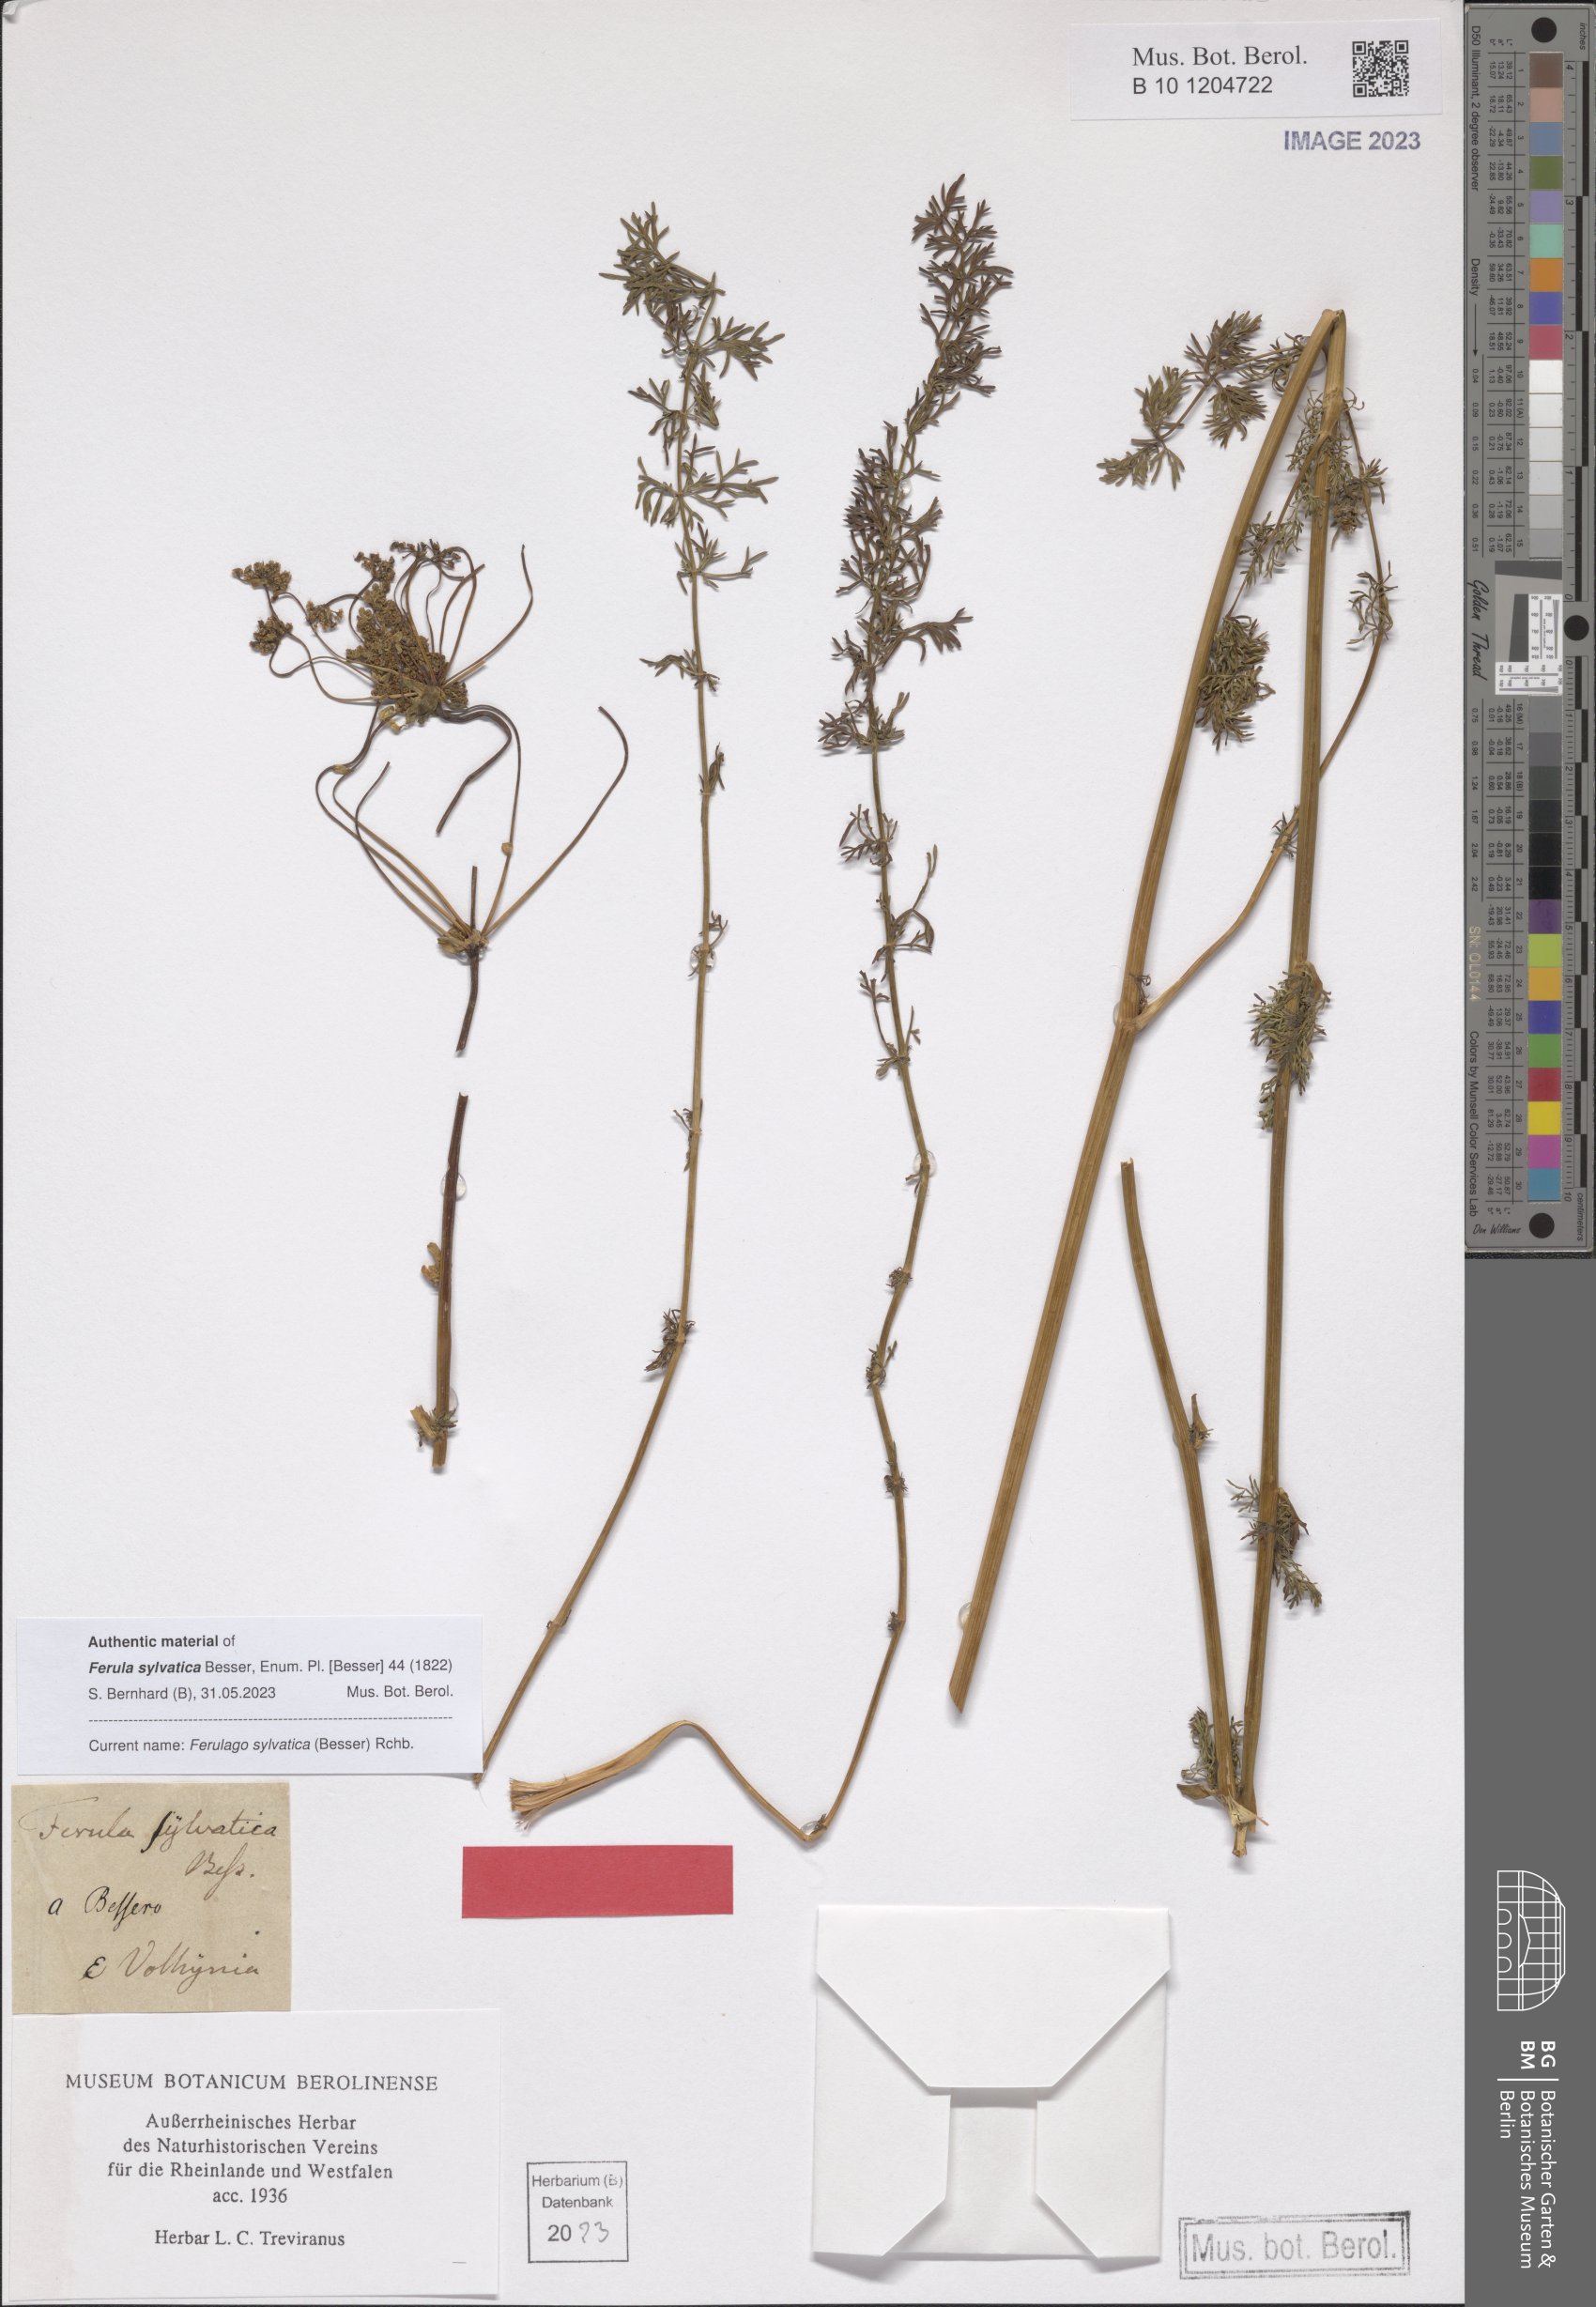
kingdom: Plantae
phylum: Tracheophyta
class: Magnoliopsida
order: Apiales
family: Apiaceae
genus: Ferulago
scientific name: Ferulago sylvatica
